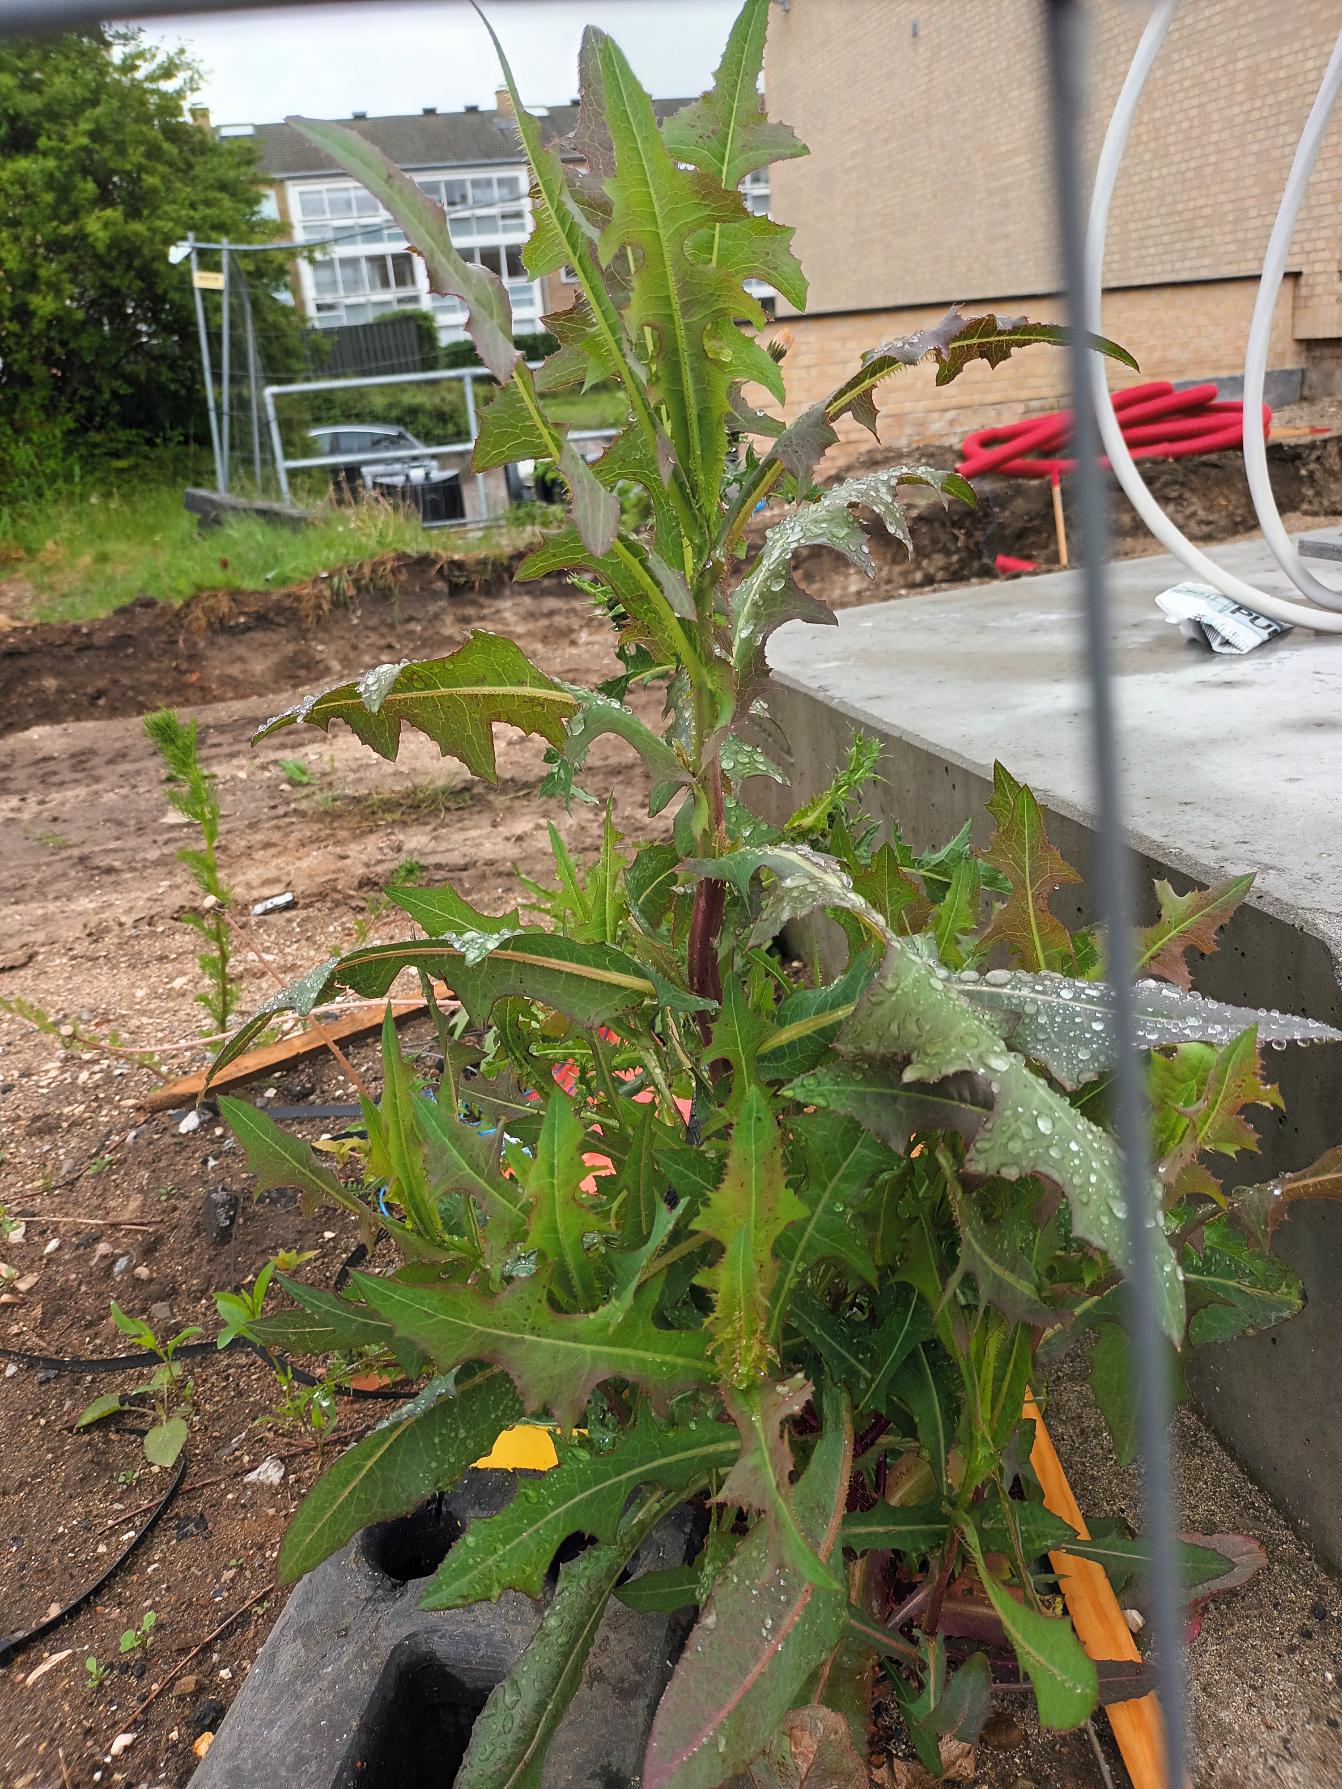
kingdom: Plantae
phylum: Tracheophyta
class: Magnoliopsida
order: Asterales
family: Asteraceae
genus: Lactuca
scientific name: Lactuca serriola
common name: Tornet salat
